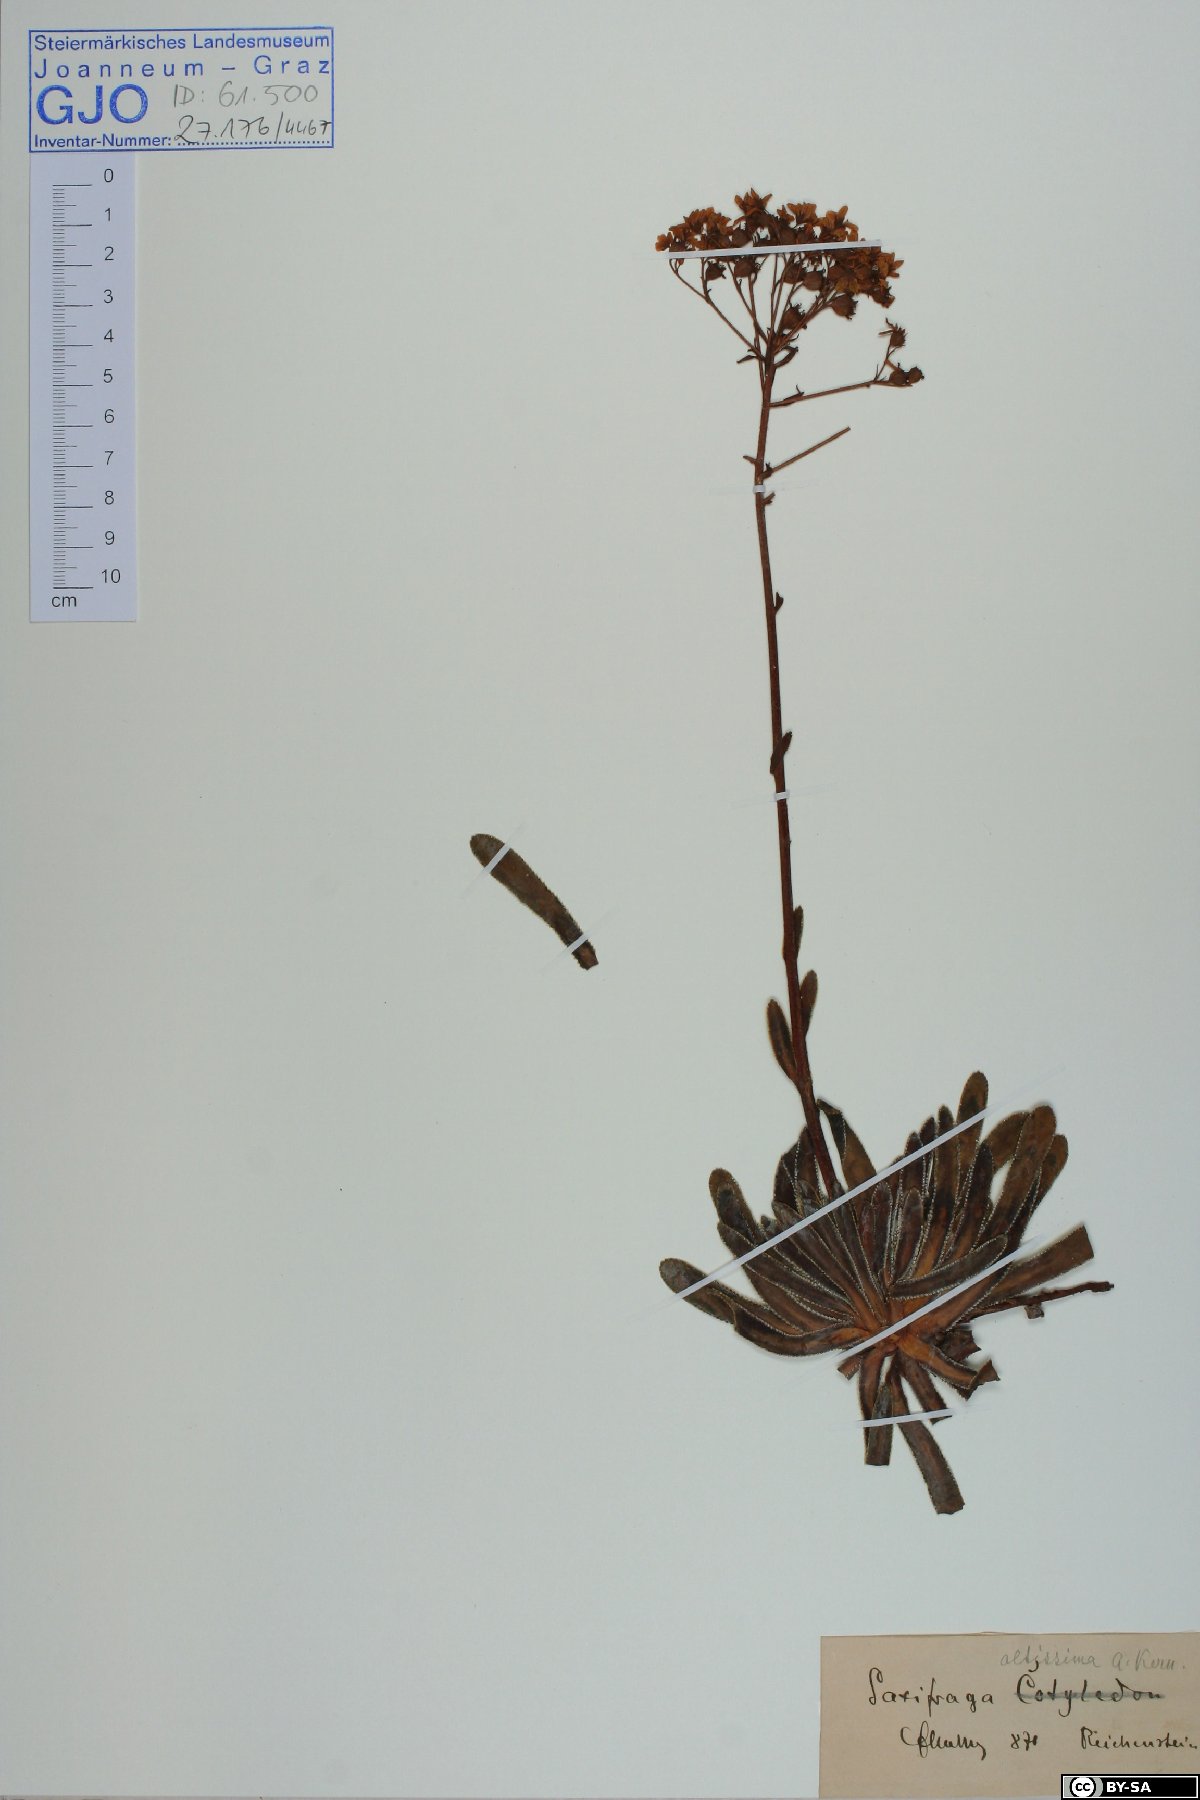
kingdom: Plantae
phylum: Tracheophyta
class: Magnoliopsida
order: Saxifragales
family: Saxifragaceae
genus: Saxifraga
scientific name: Saxifraga hostii
